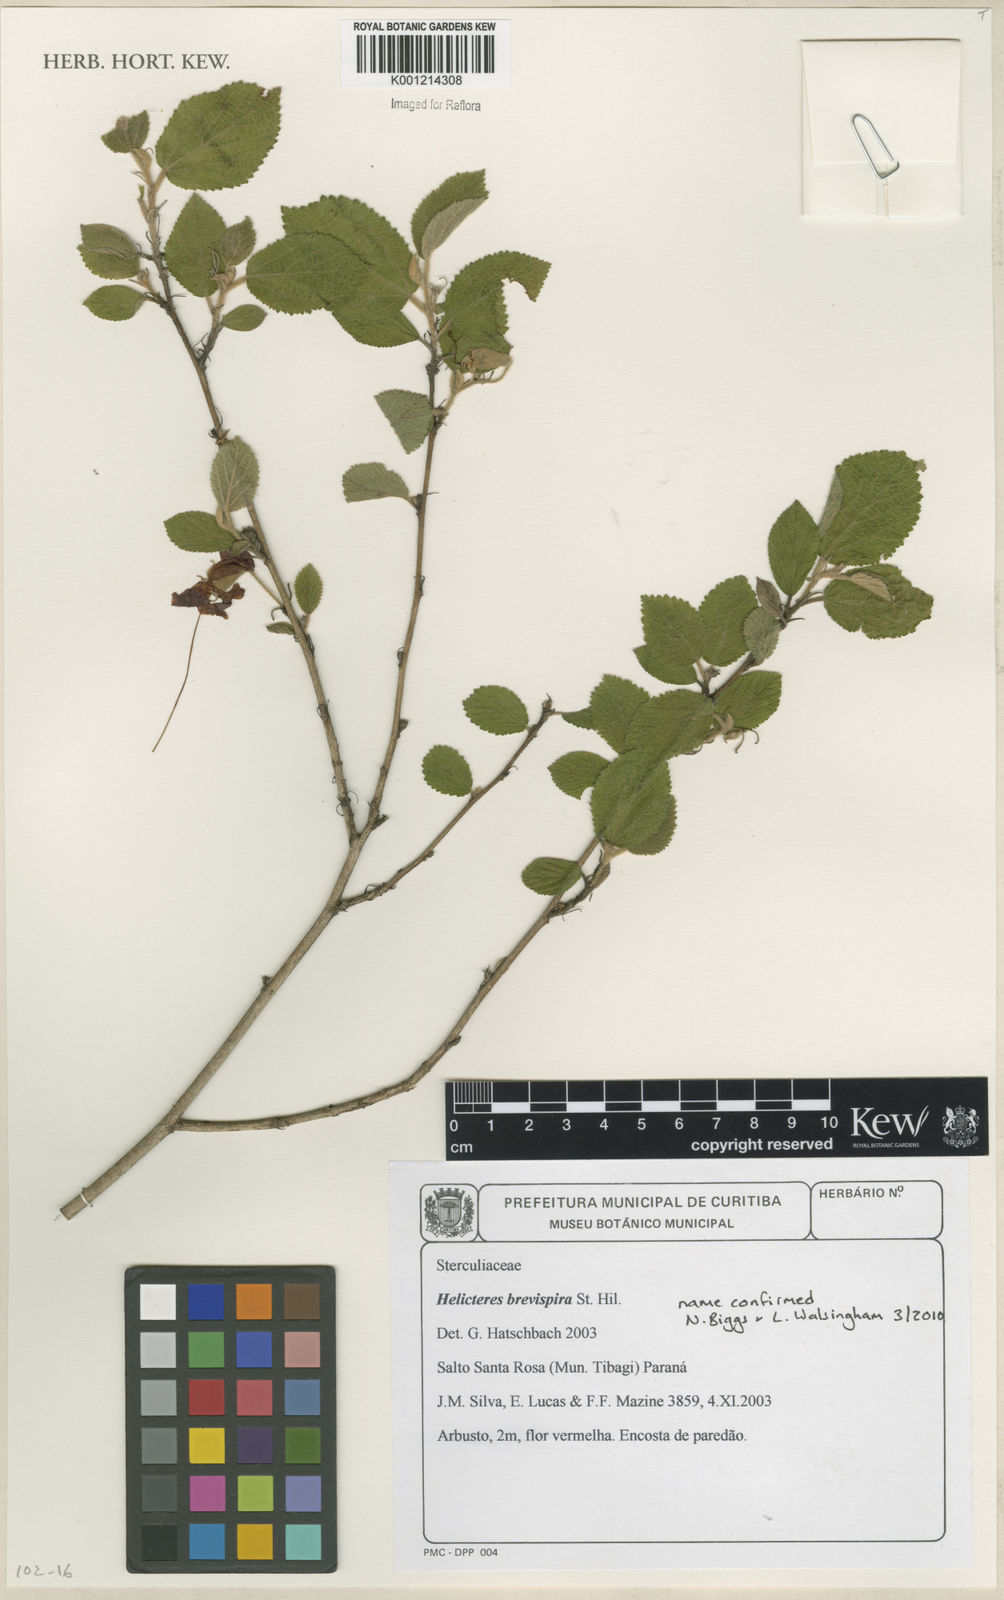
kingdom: Plantae
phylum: Tracheophyta
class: Magnoliopsida
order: Malvales
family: Malvaceae
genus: Helicteres
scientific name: Helicteres
